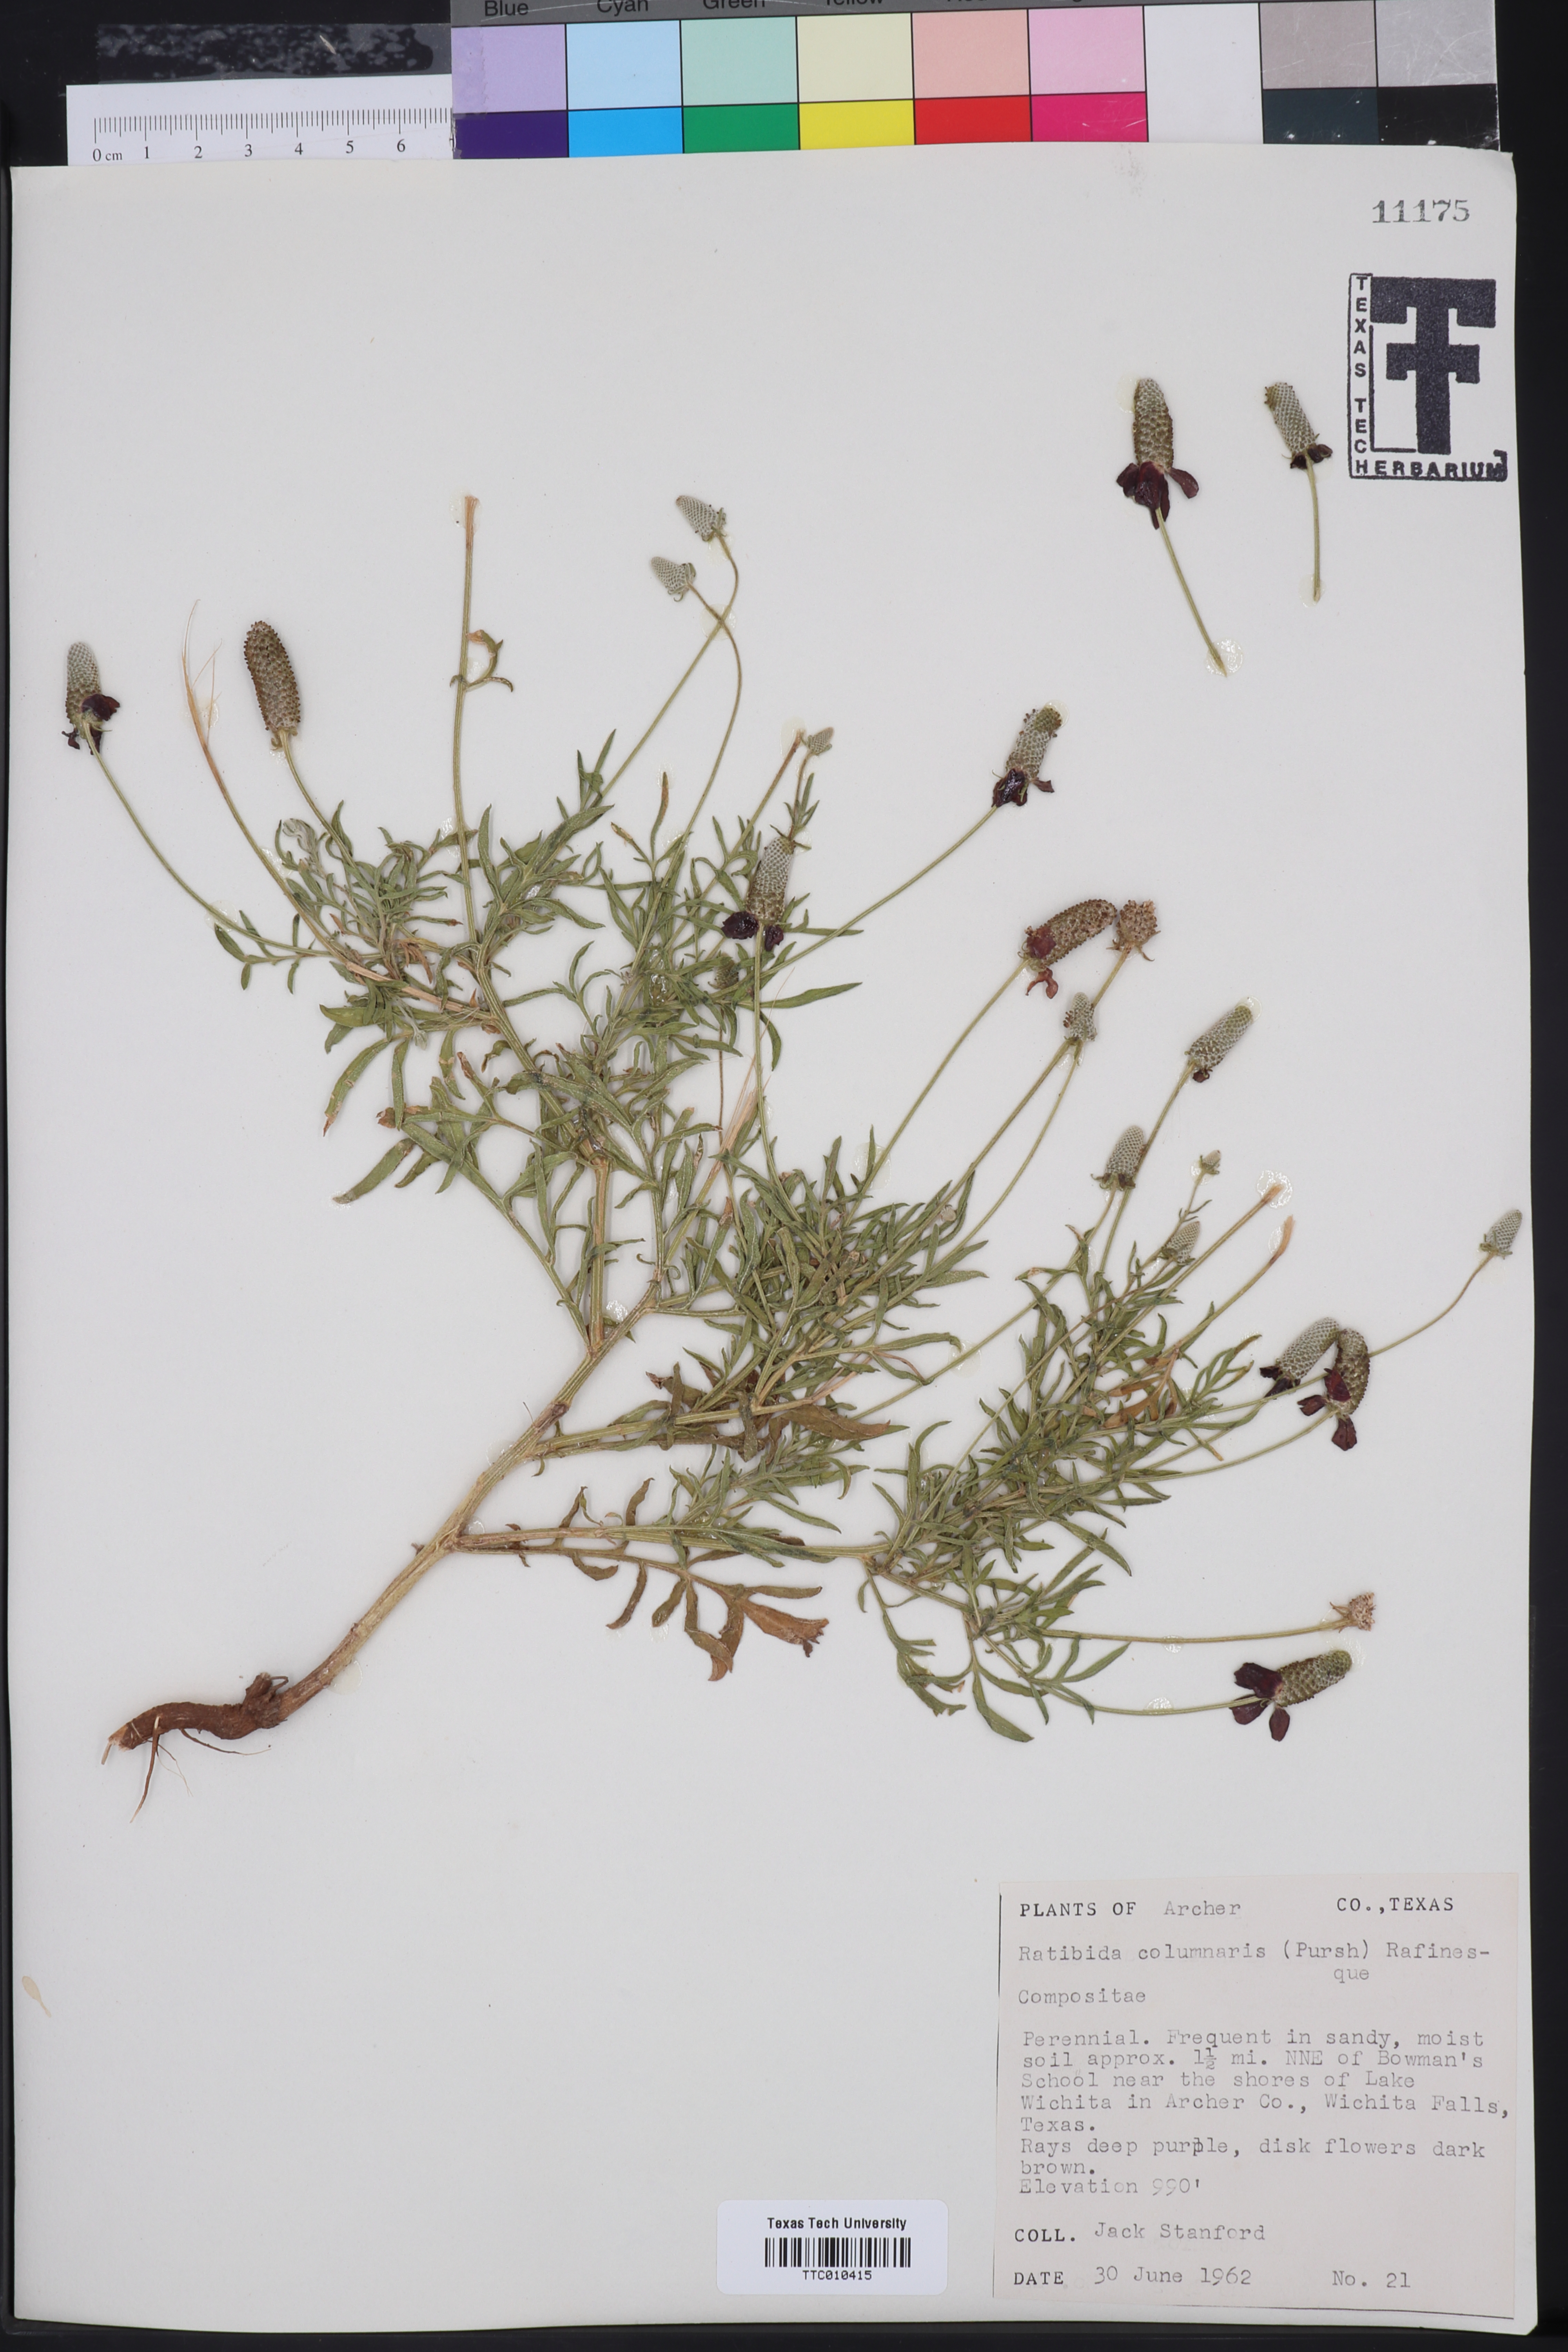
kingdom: Plantae
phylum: Tracheophyta
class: Magnoliopsida
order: Asterales
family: Asteraceae
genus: Ratibida
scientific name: Ratibida columnifera
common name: Prairie coneflower
